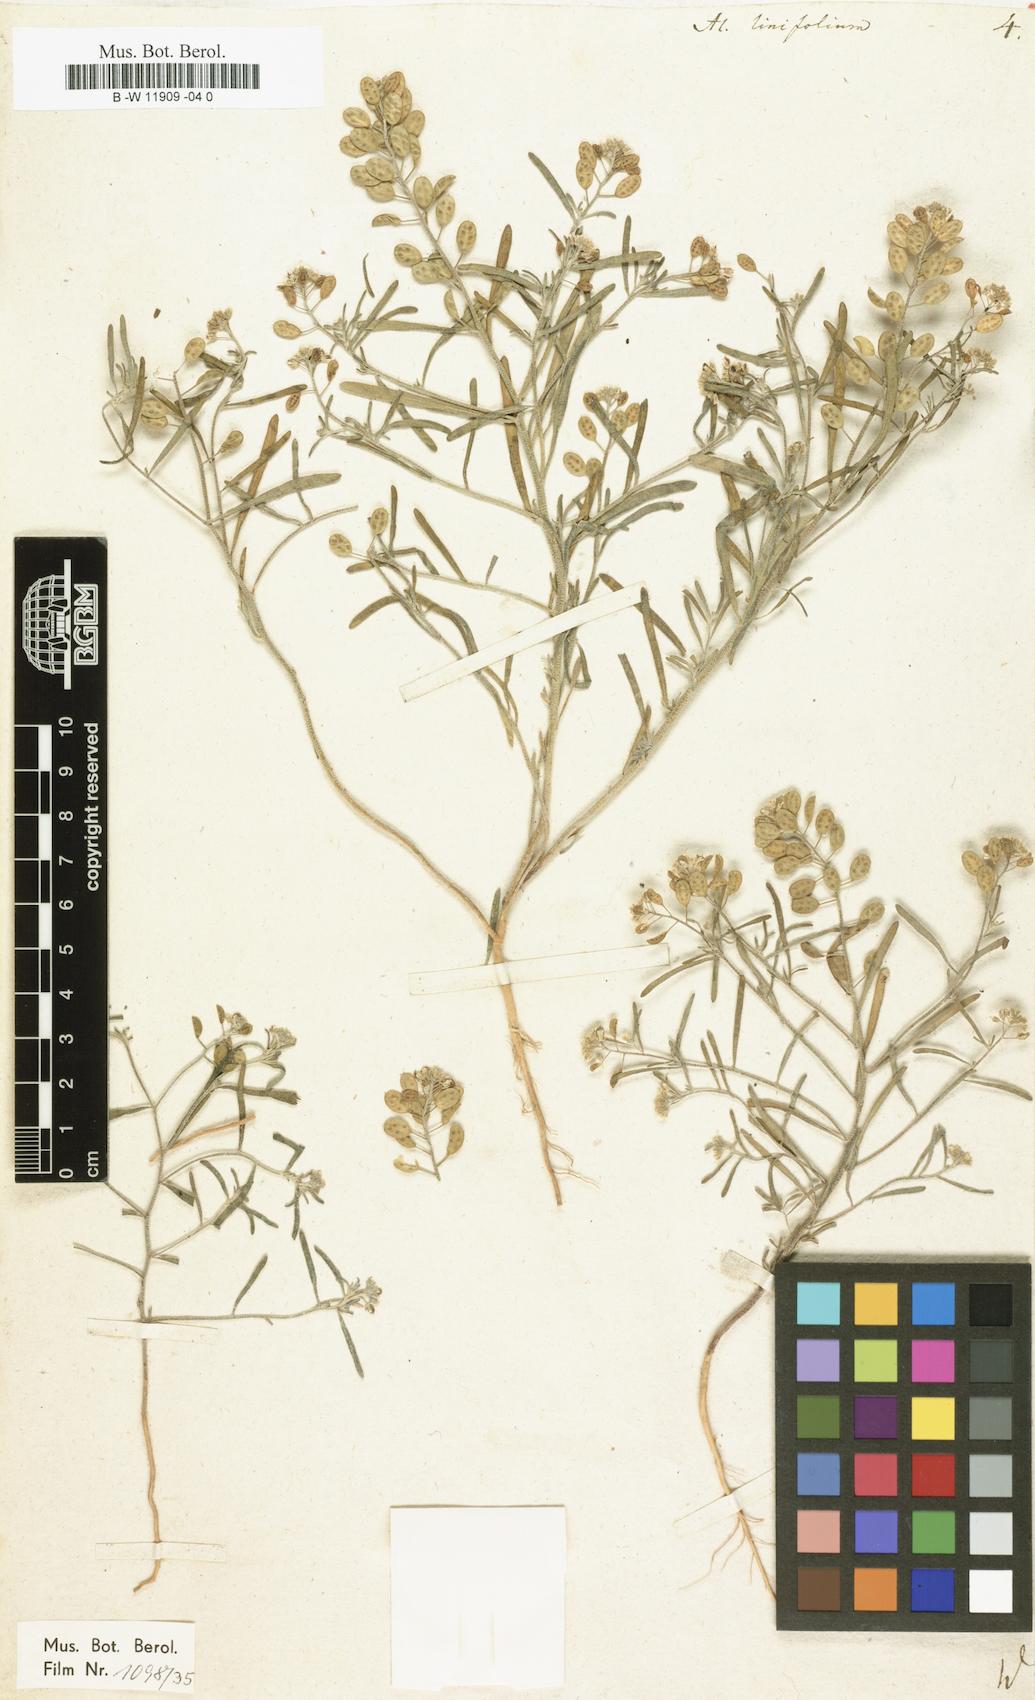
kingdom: Plantae
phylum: Tracheophyta
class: Magnoliopsida
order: Brassicales
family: Brassicaceae
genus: Meniocus
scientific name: Meniocus linifolius
